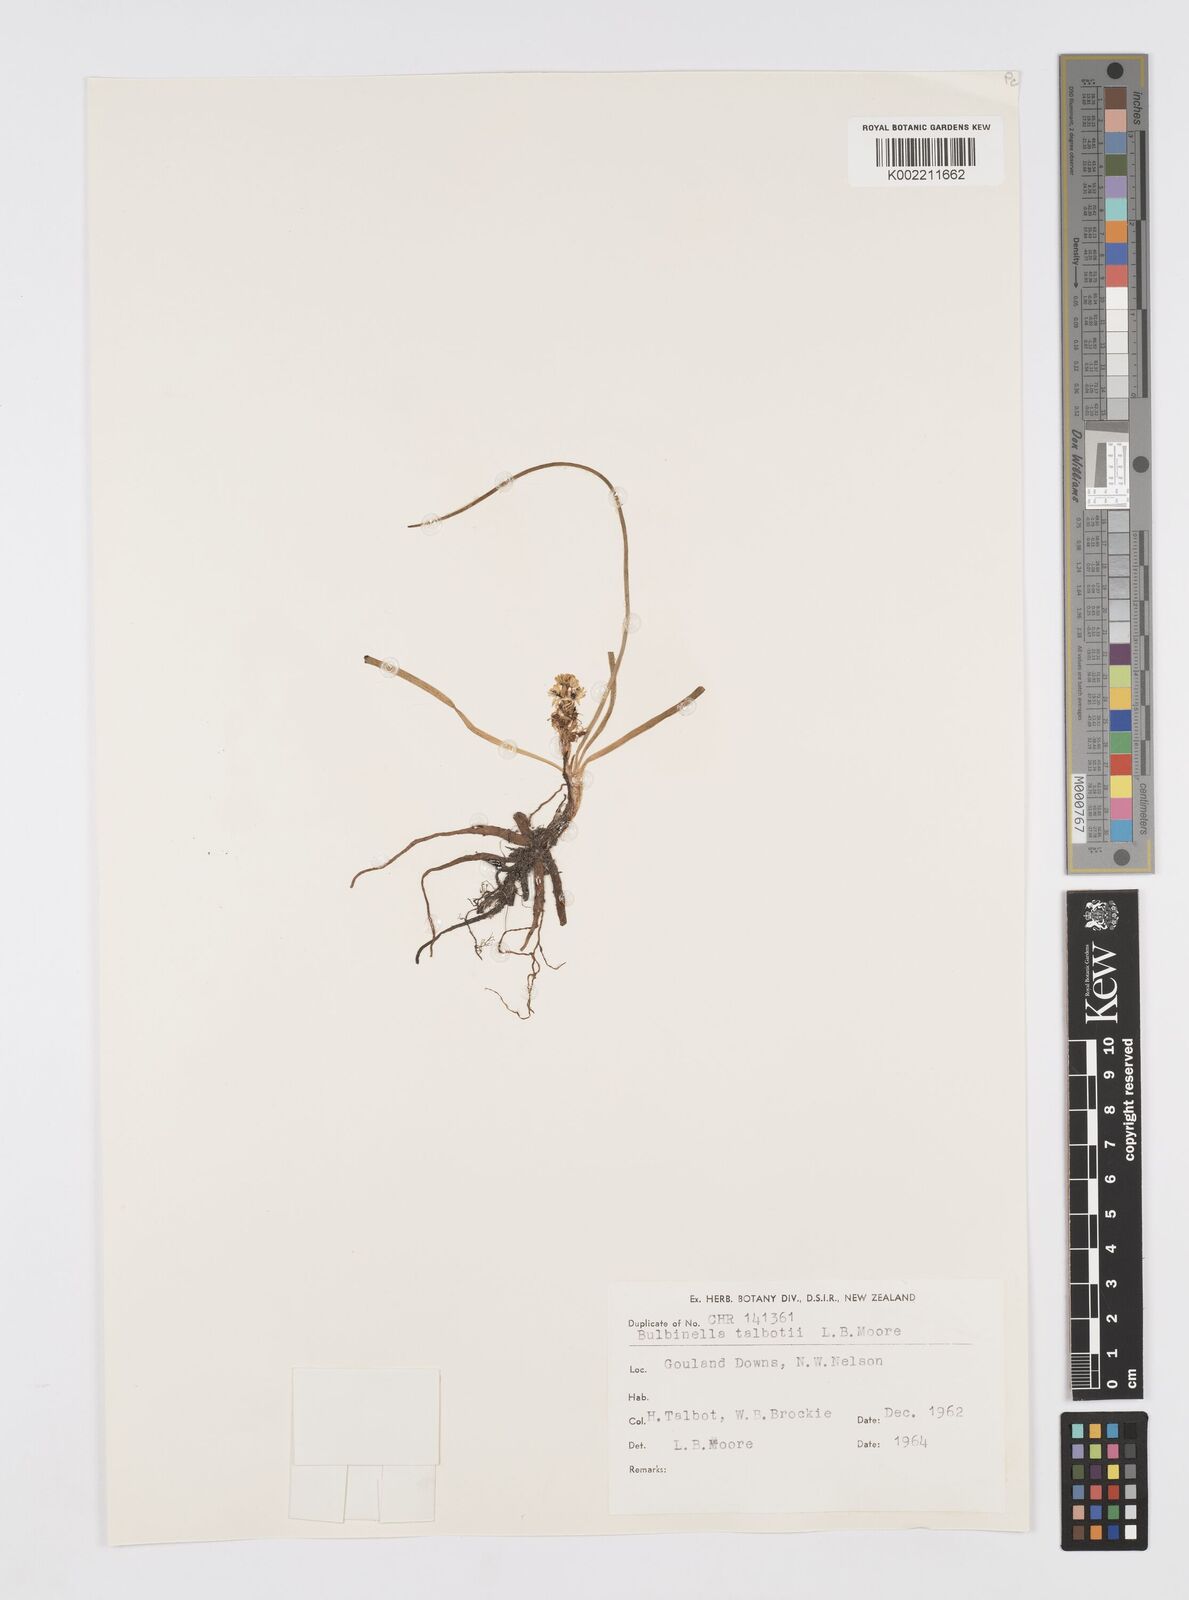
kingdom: Plantae
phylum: Tracheophyta
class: Liliopsida
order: Asparagales
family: Asphodelaceae
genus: Bulbinella
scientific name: Bulbinella talbotii
